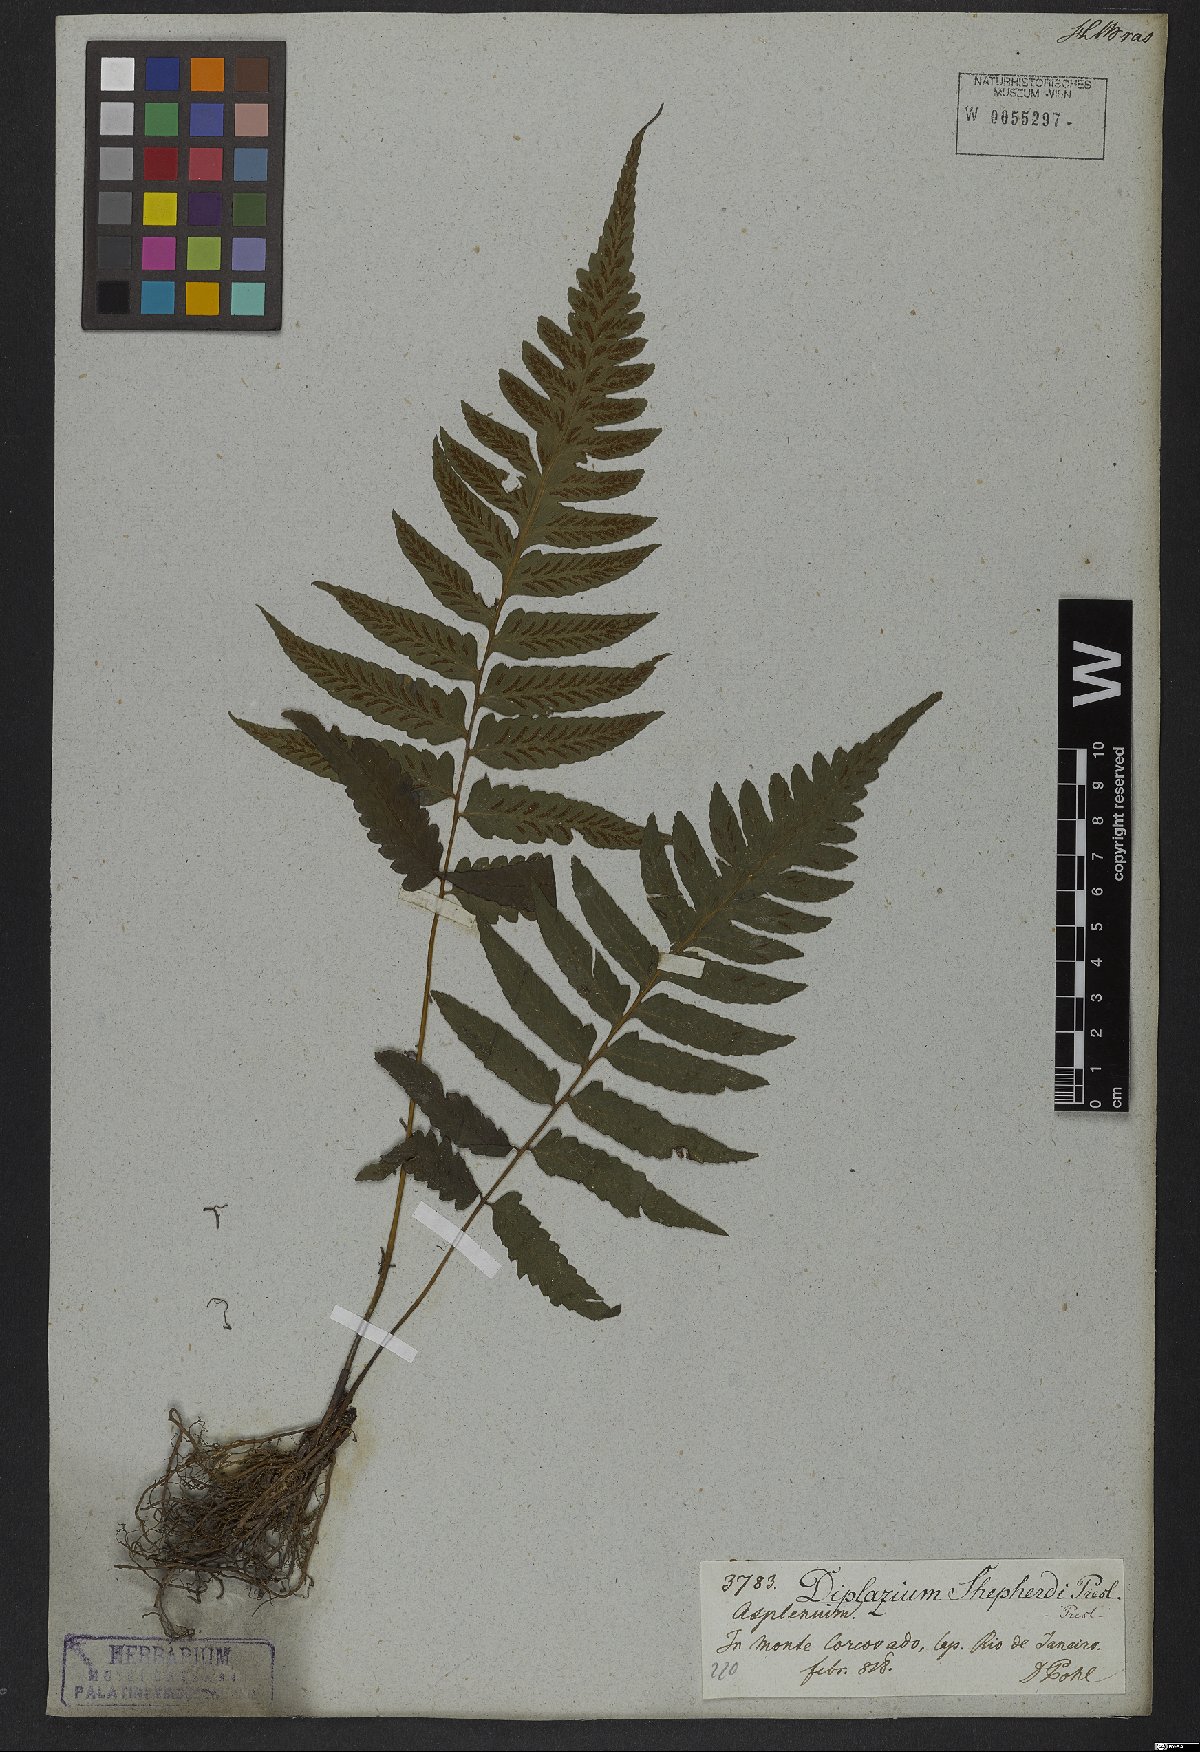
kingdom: Plantae
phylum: Tracheophyta
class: Polypodiopsida
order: Polypodiales
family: Athyriaceae
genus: Diplazium
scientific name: Diplazium cristatum
